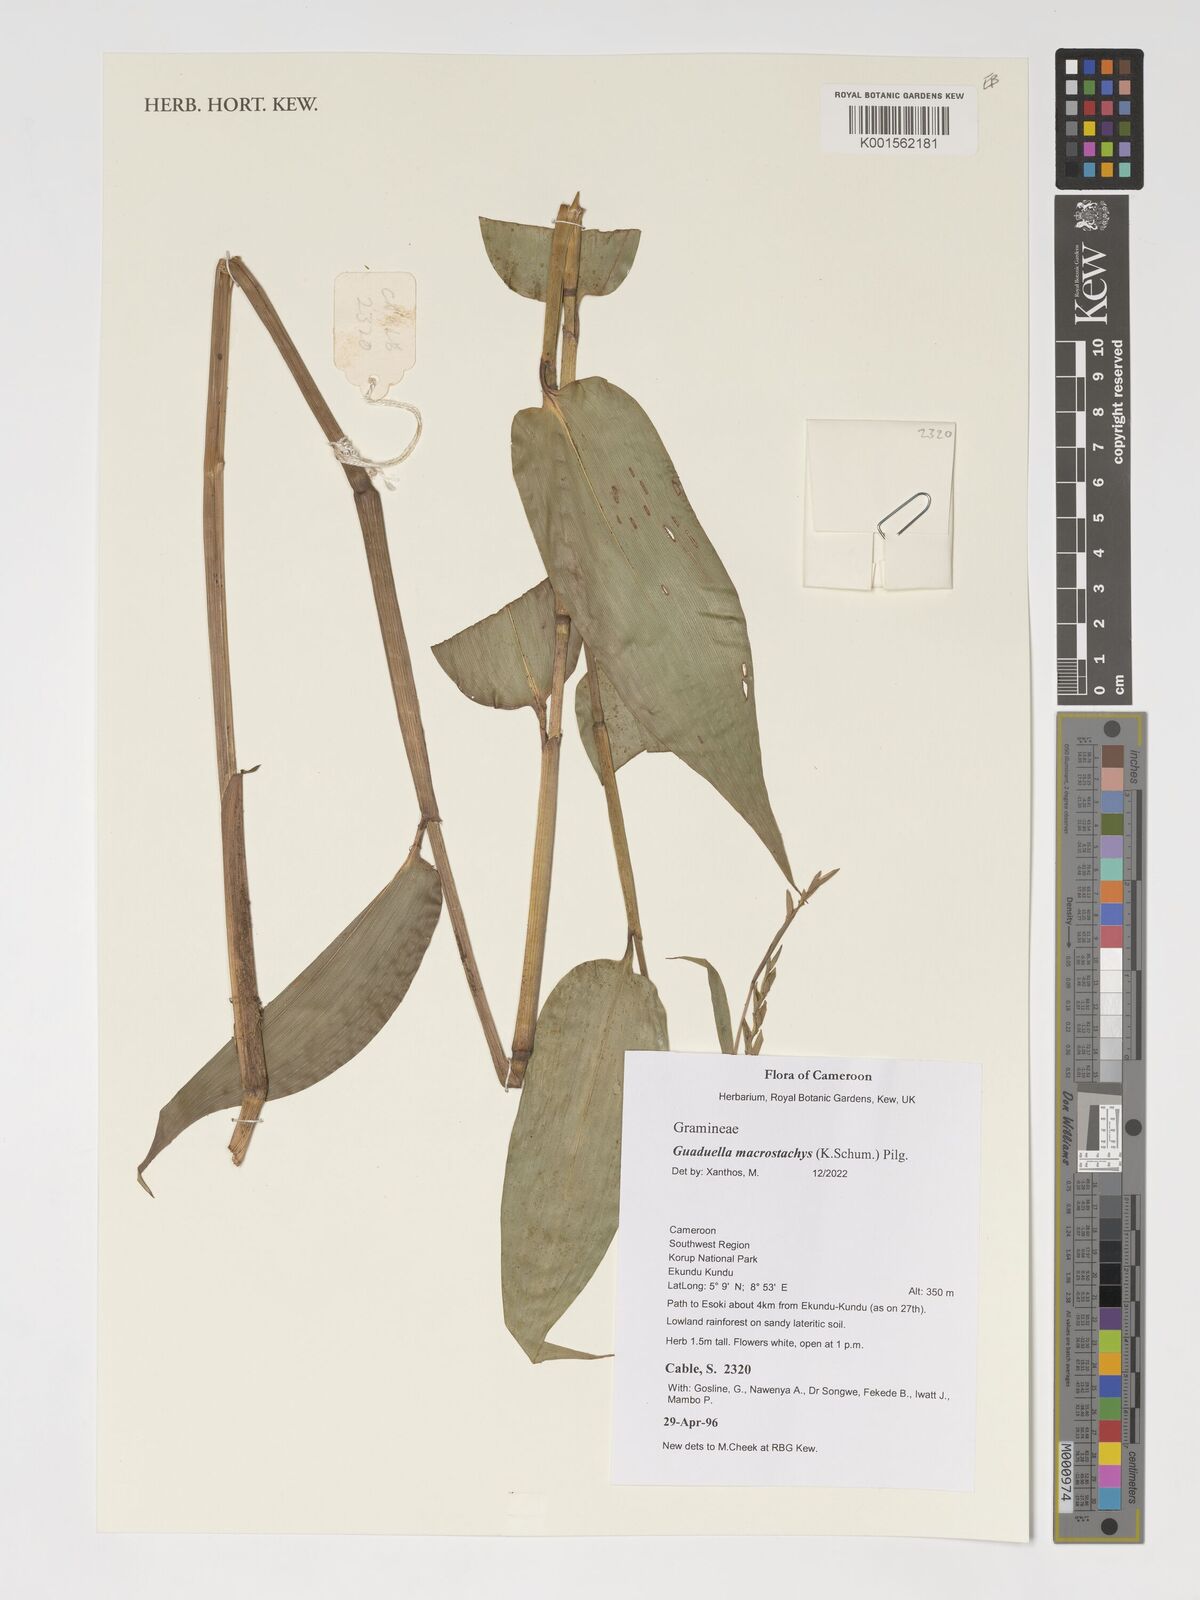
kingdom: Plantae
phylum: Tracheophyta
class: Liliopsida
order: Poales
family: Poaceae
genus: Guaduella
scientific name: Guaduella macrostachys
